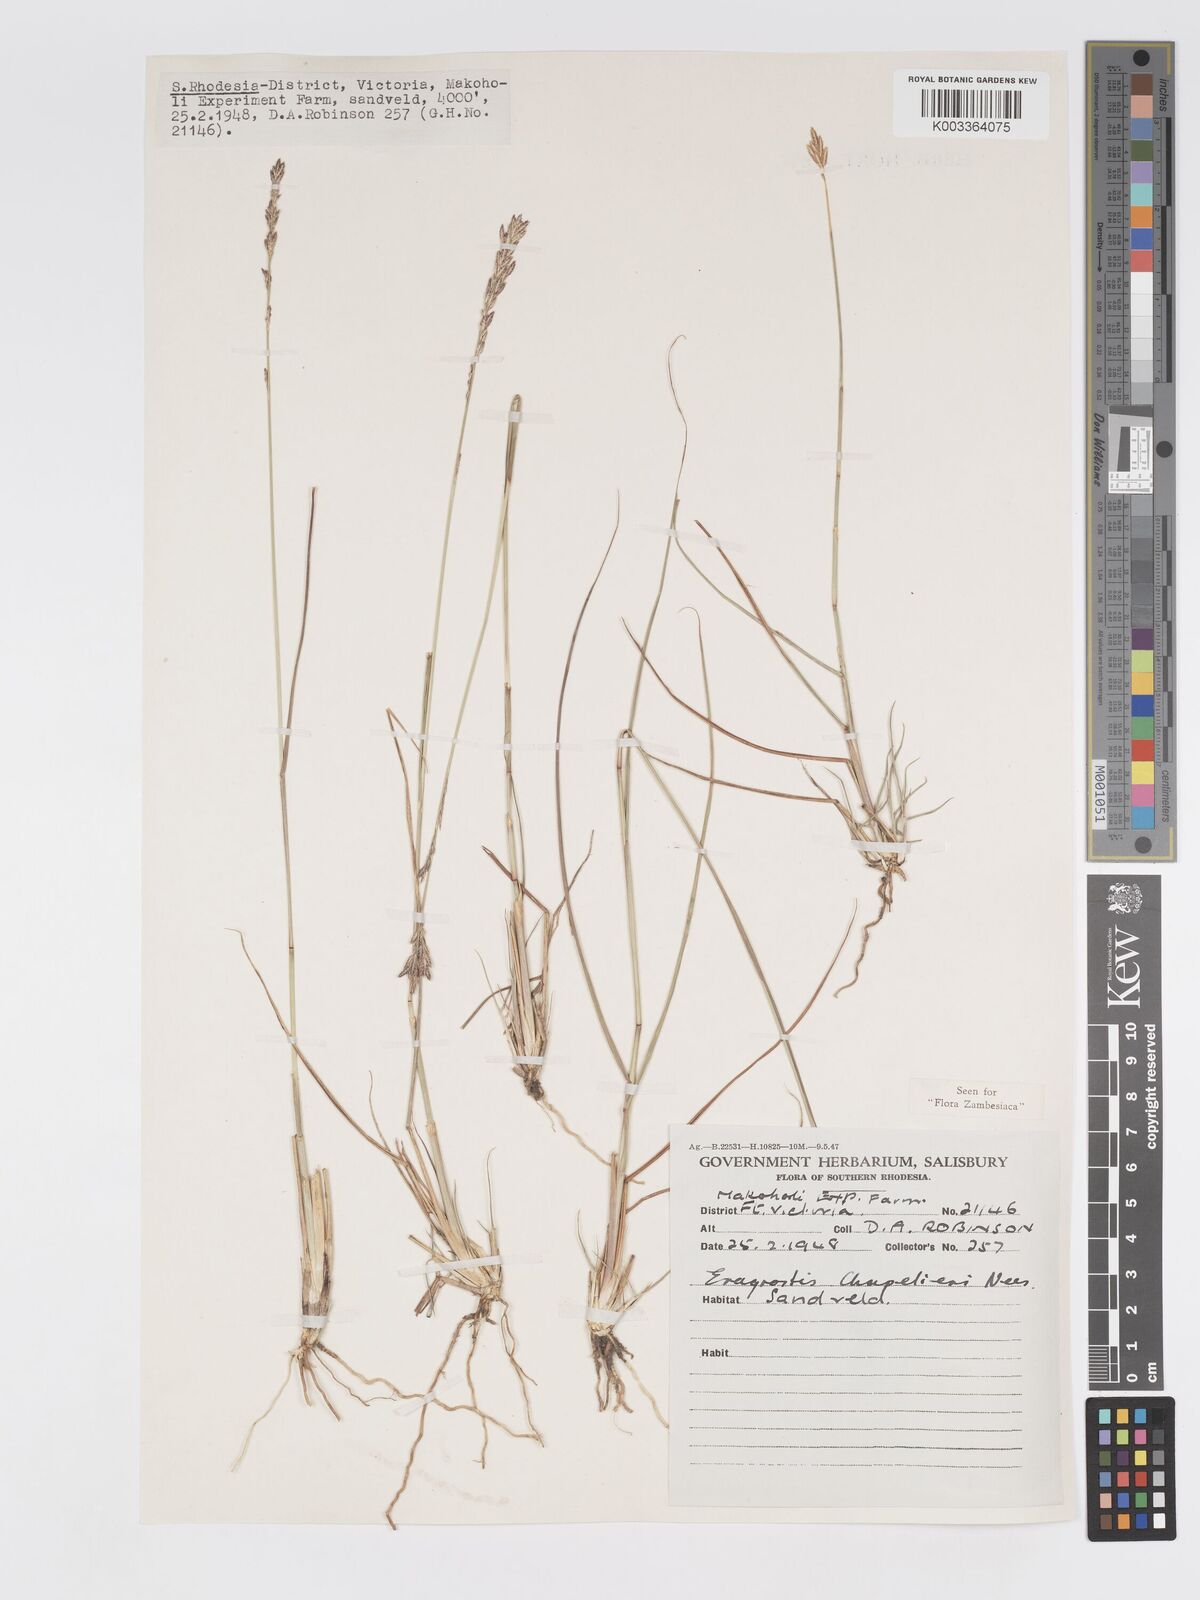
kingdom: Plantae
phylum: Tracheophyta
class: Liliopsida
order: Poales
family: Poaceae
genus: Eragrostis
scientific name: Eragrostis chapelieri
